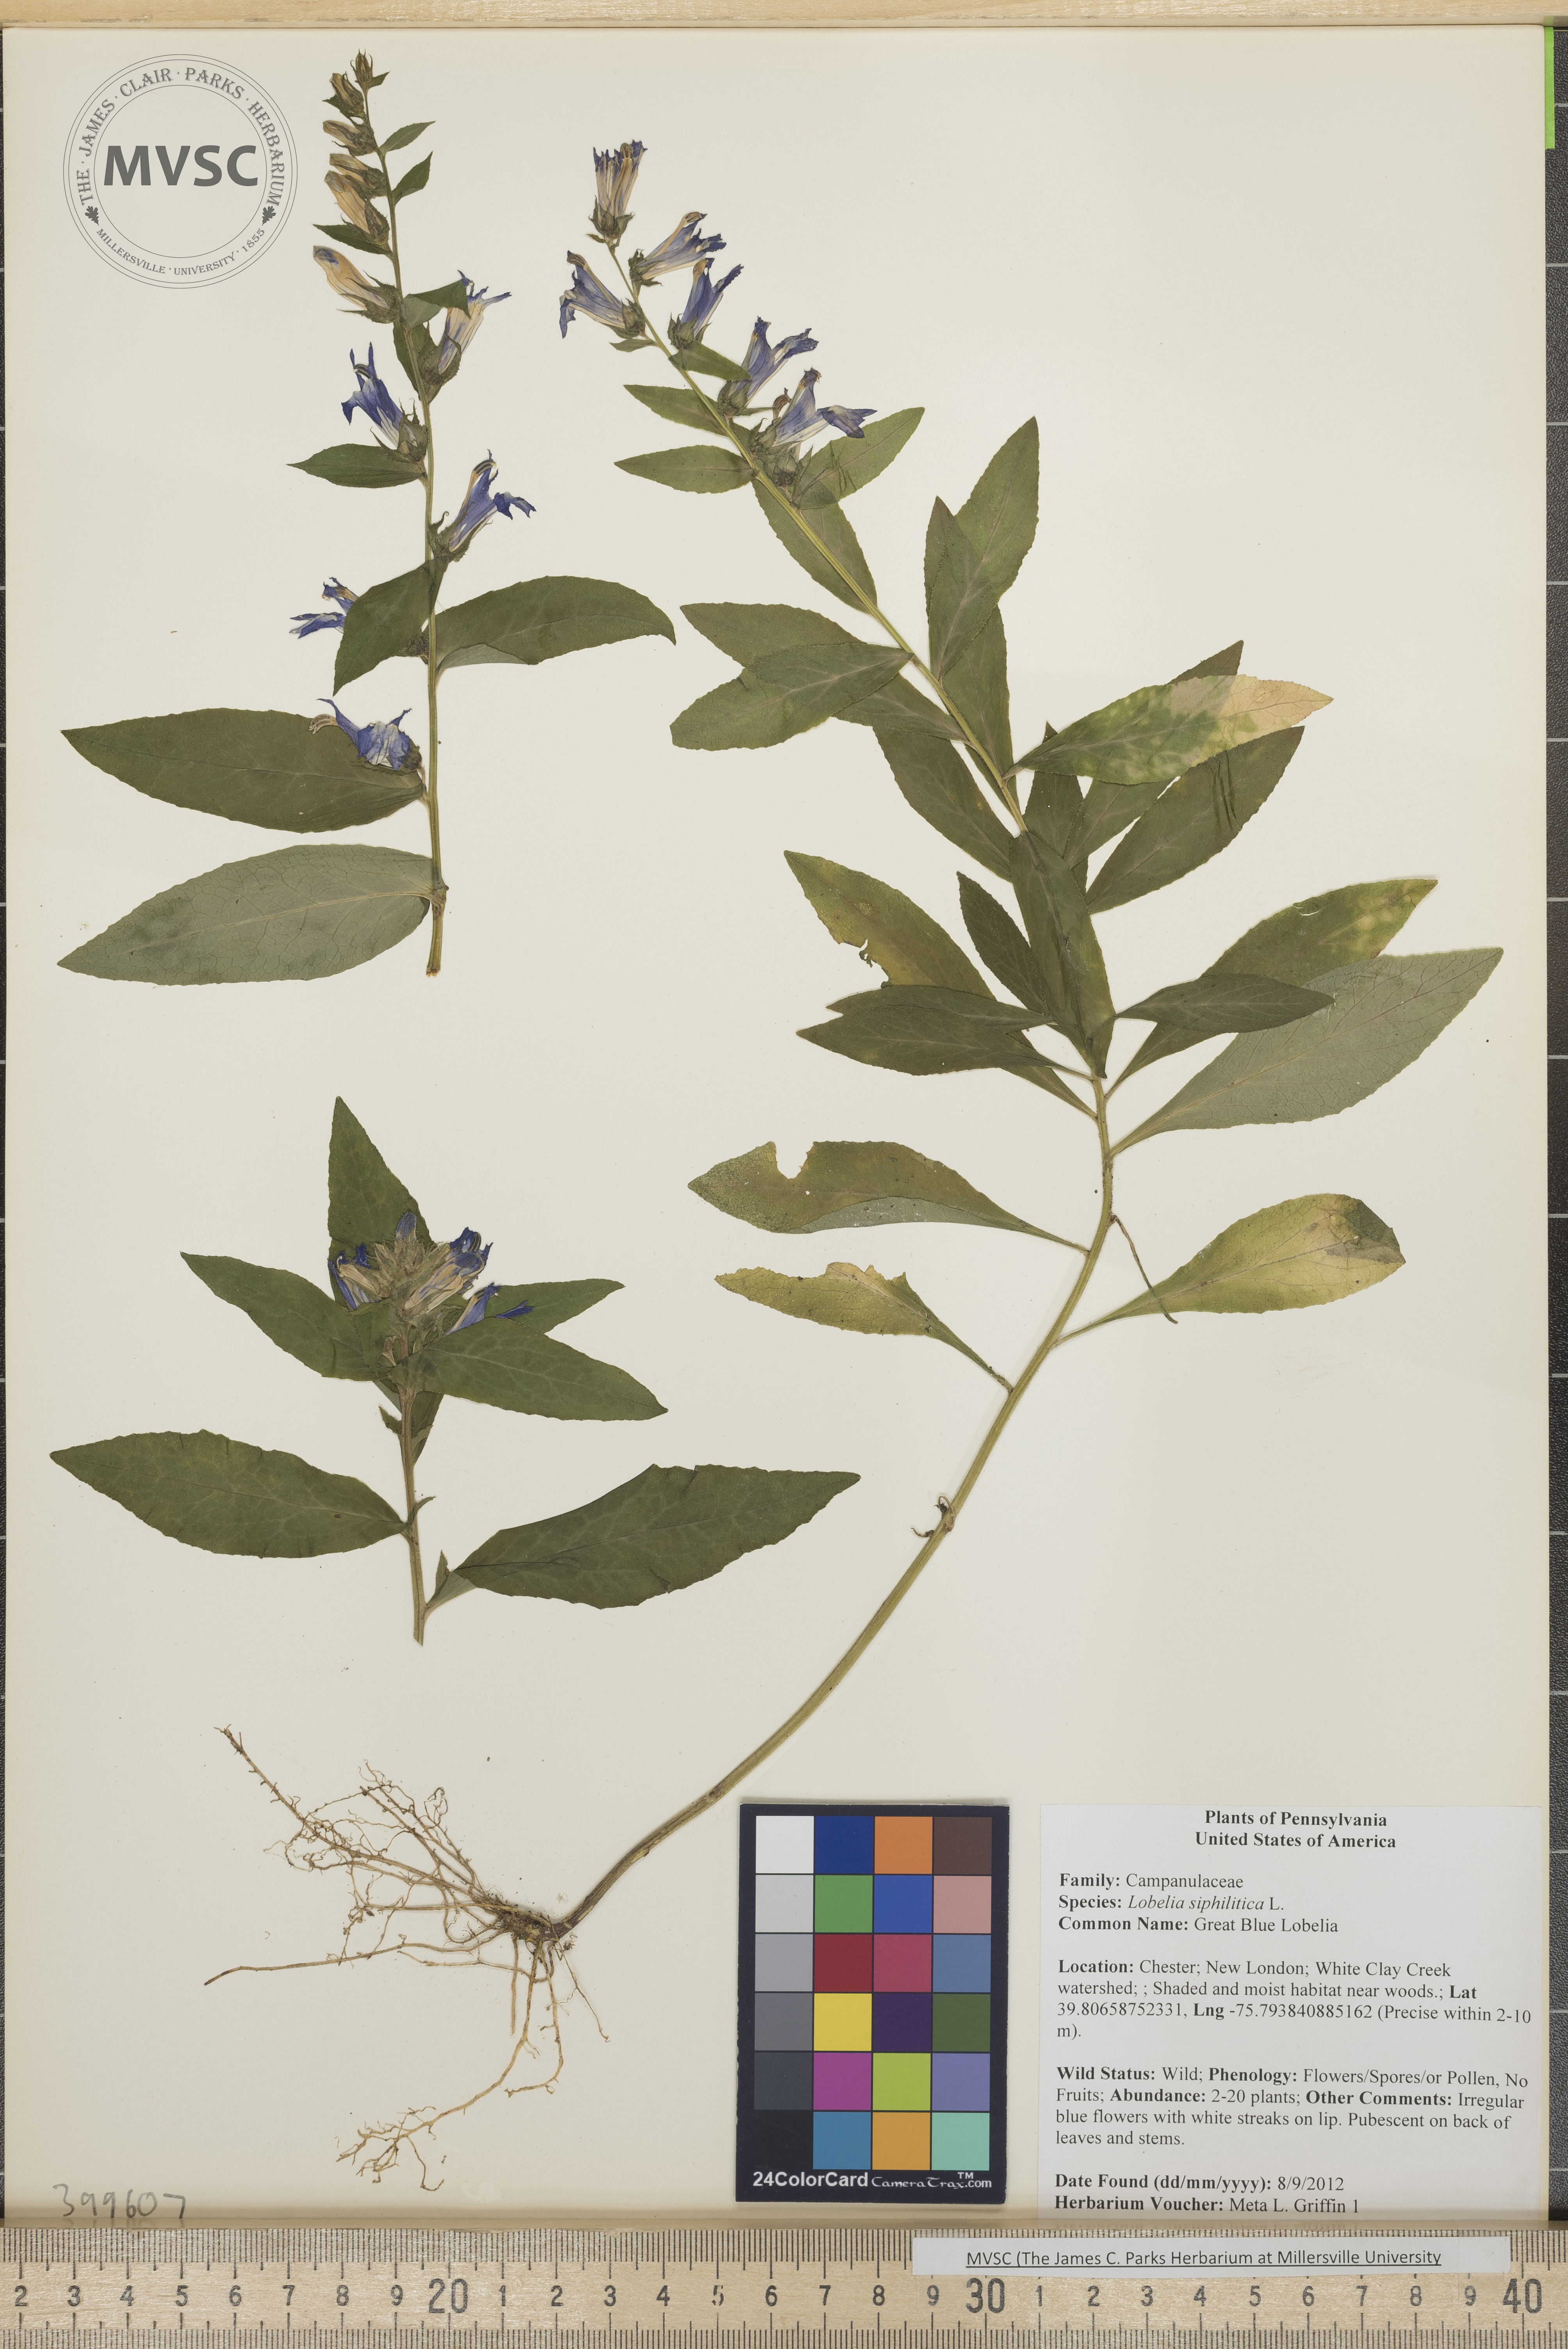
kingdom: Plantae
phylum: Tracheophyta
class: Magnoliopsida
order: Asterales
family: Campanulaceae
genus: Lobelia
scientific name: Lobelia siphilitica
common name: Great Blue Lobelia
